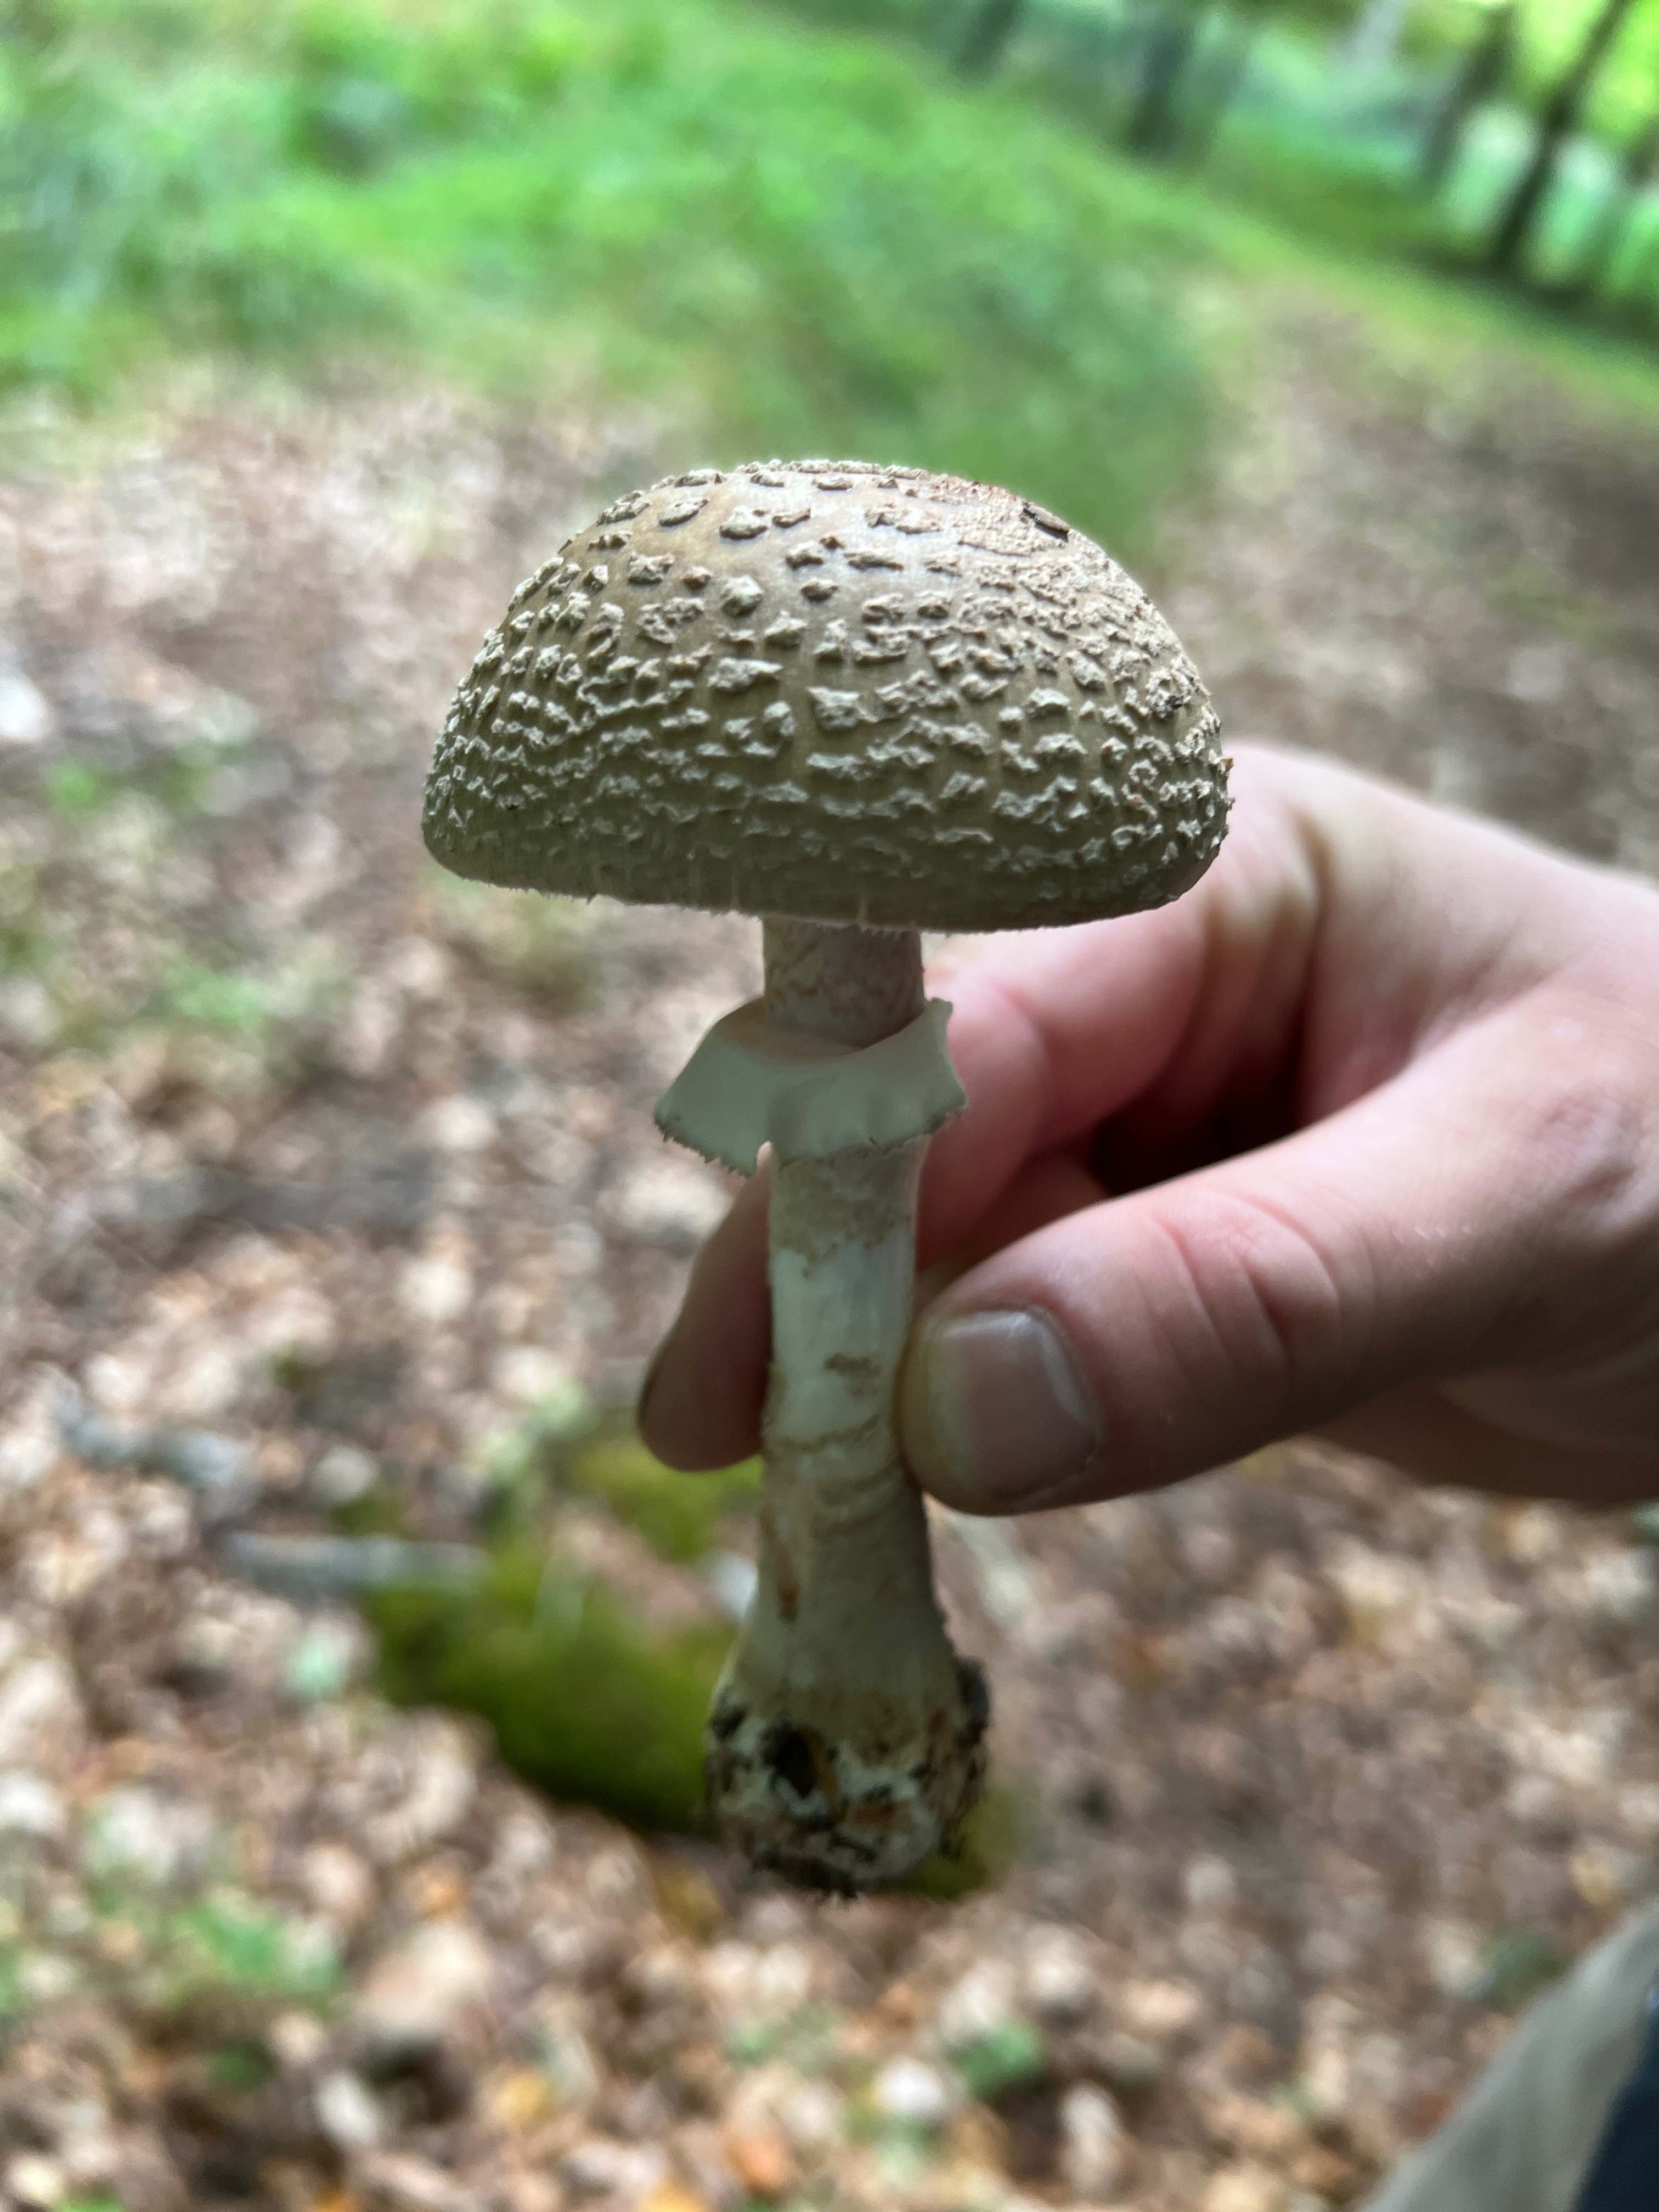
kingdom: Fungi
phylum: Basidiomycota
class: Agaricomycetes
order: Agaricales
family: Amanitaceae
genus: Amanita
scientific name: Amanita rubescens
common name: rødmende fluesvamp
